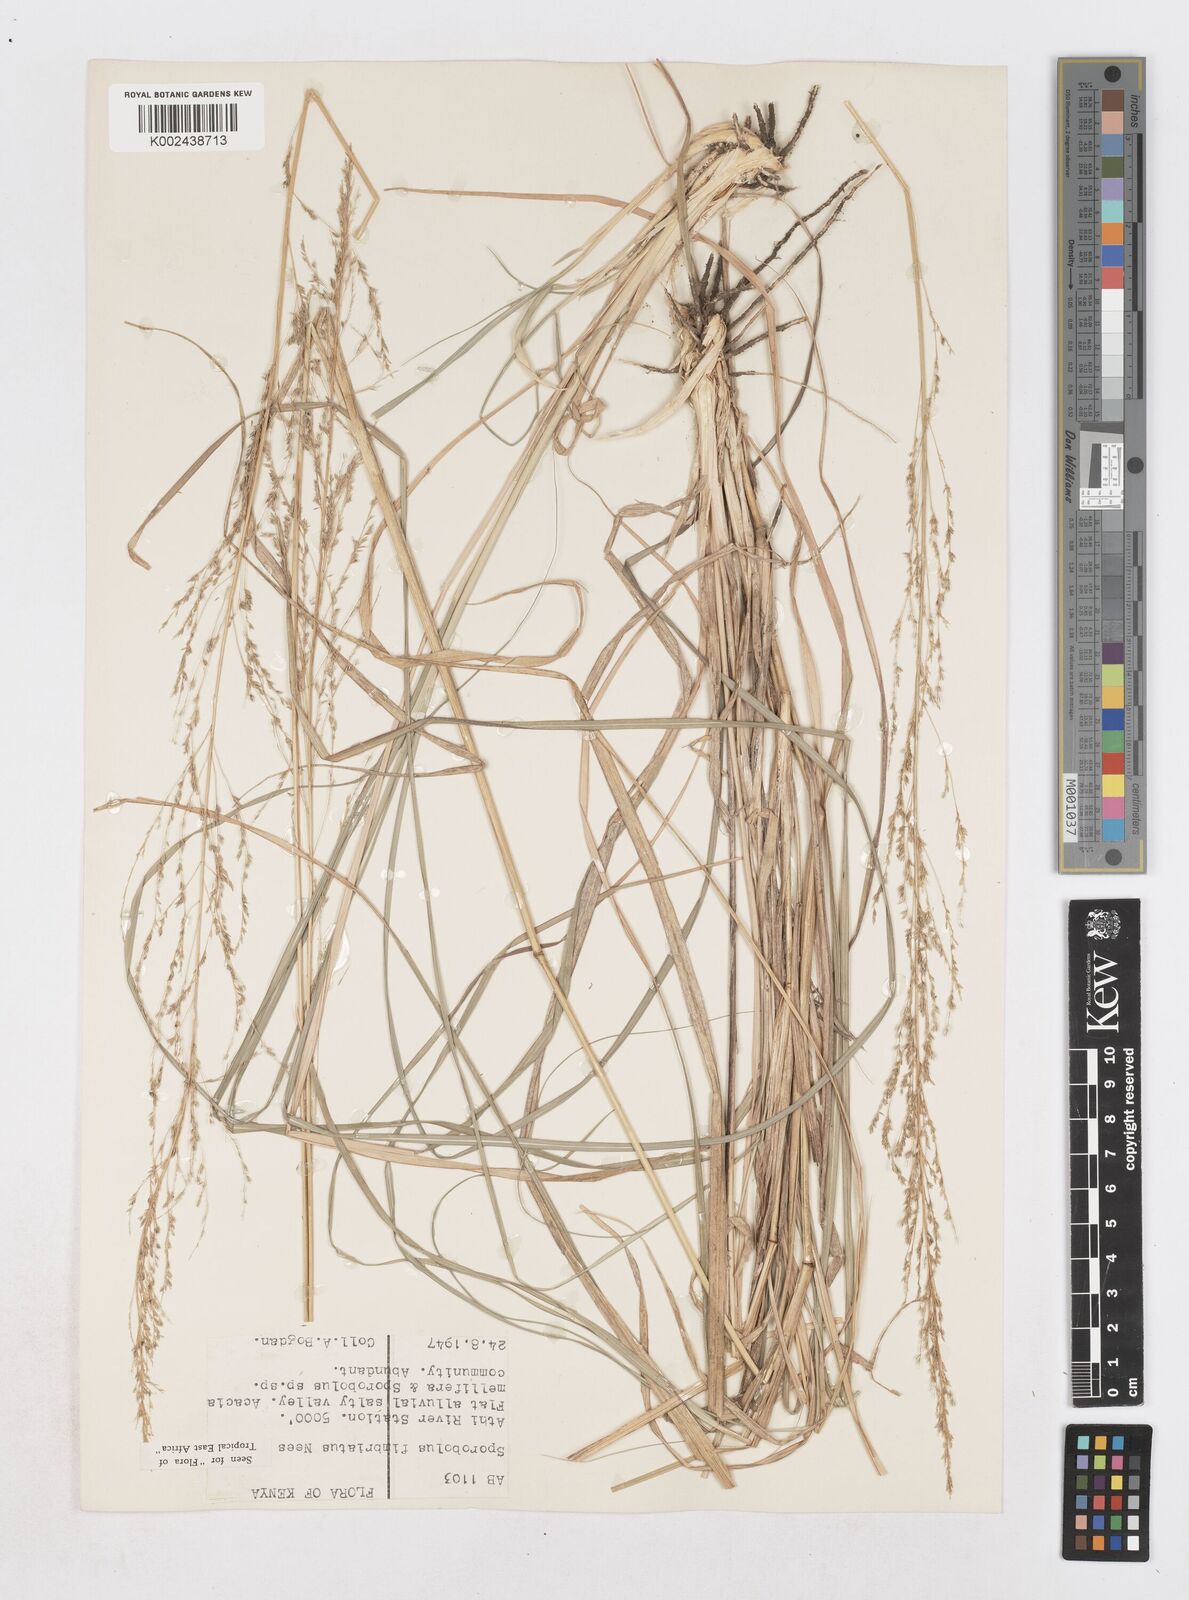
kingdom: Plantae
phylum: Tracheophyta
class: Liliopsida
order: Poales
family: Poaceae
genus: Sporobolus
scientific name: Sporobolus fimbriatus
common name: Fringed dropseed
